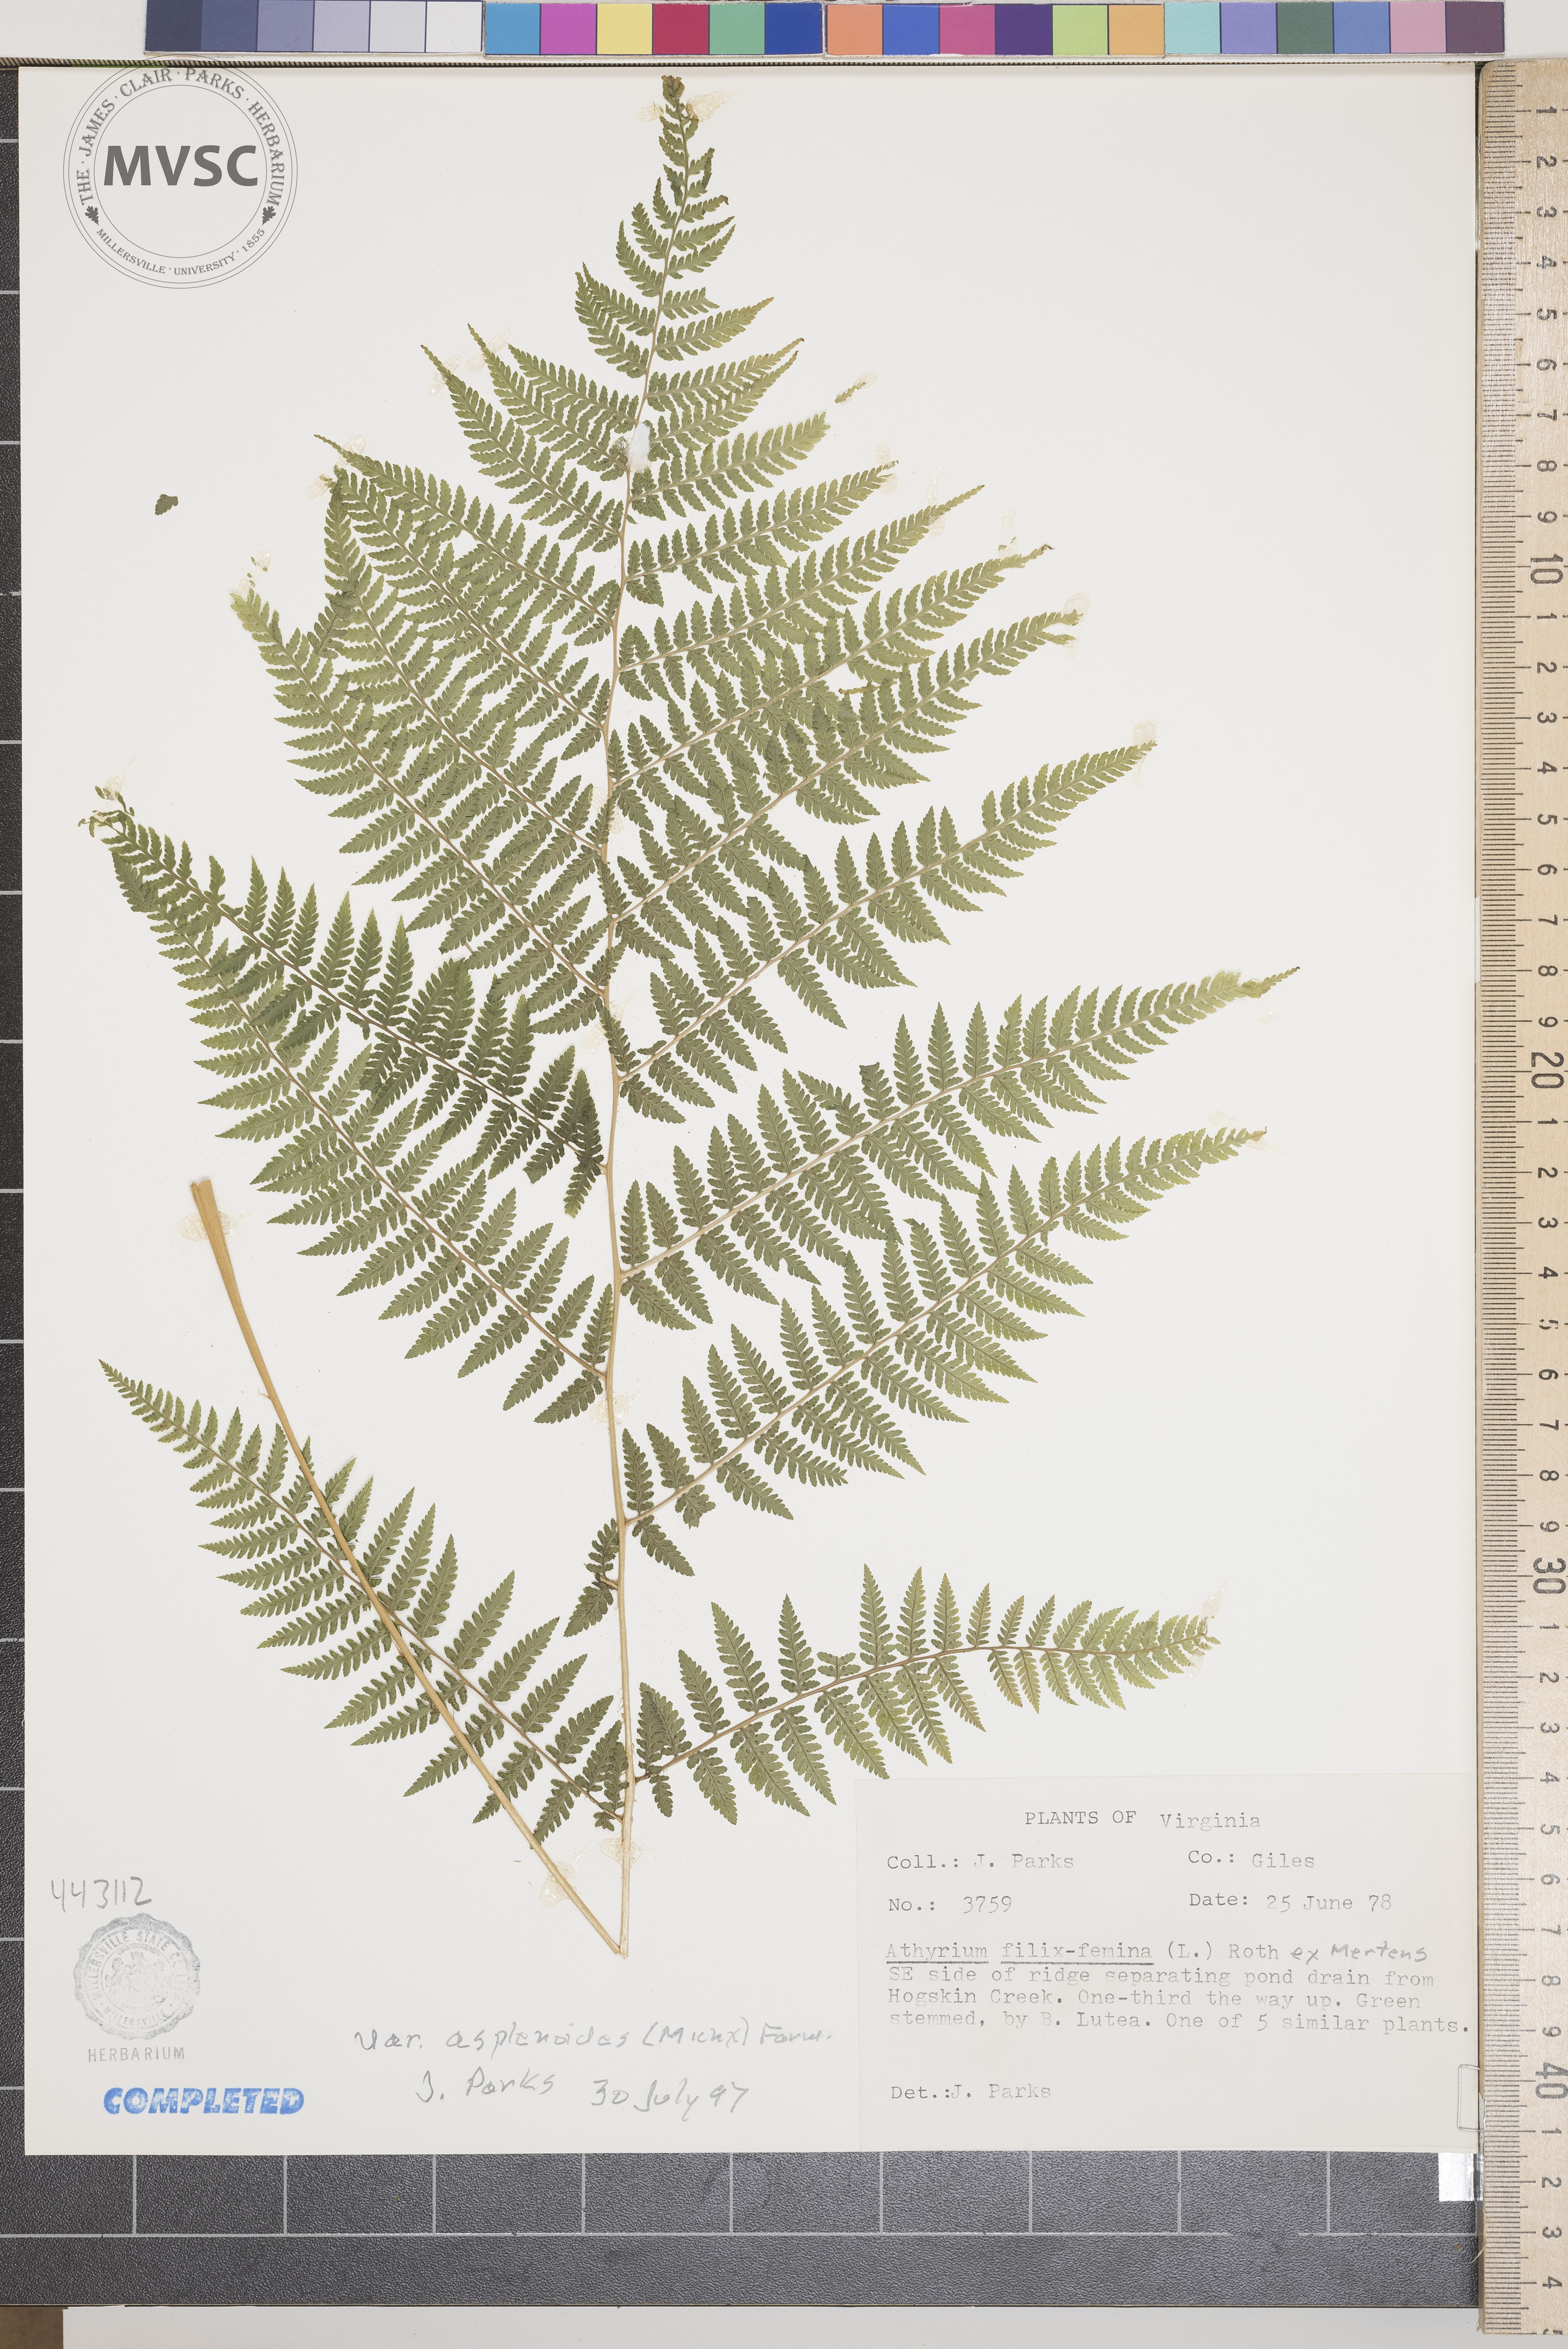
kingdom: Plantae
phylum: Tracheophyta
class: Polypodiopsida
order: Polypodiales
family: Athyriaceae
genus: Athyrium
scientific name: Athyrium filix-femina
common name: Lady fern
